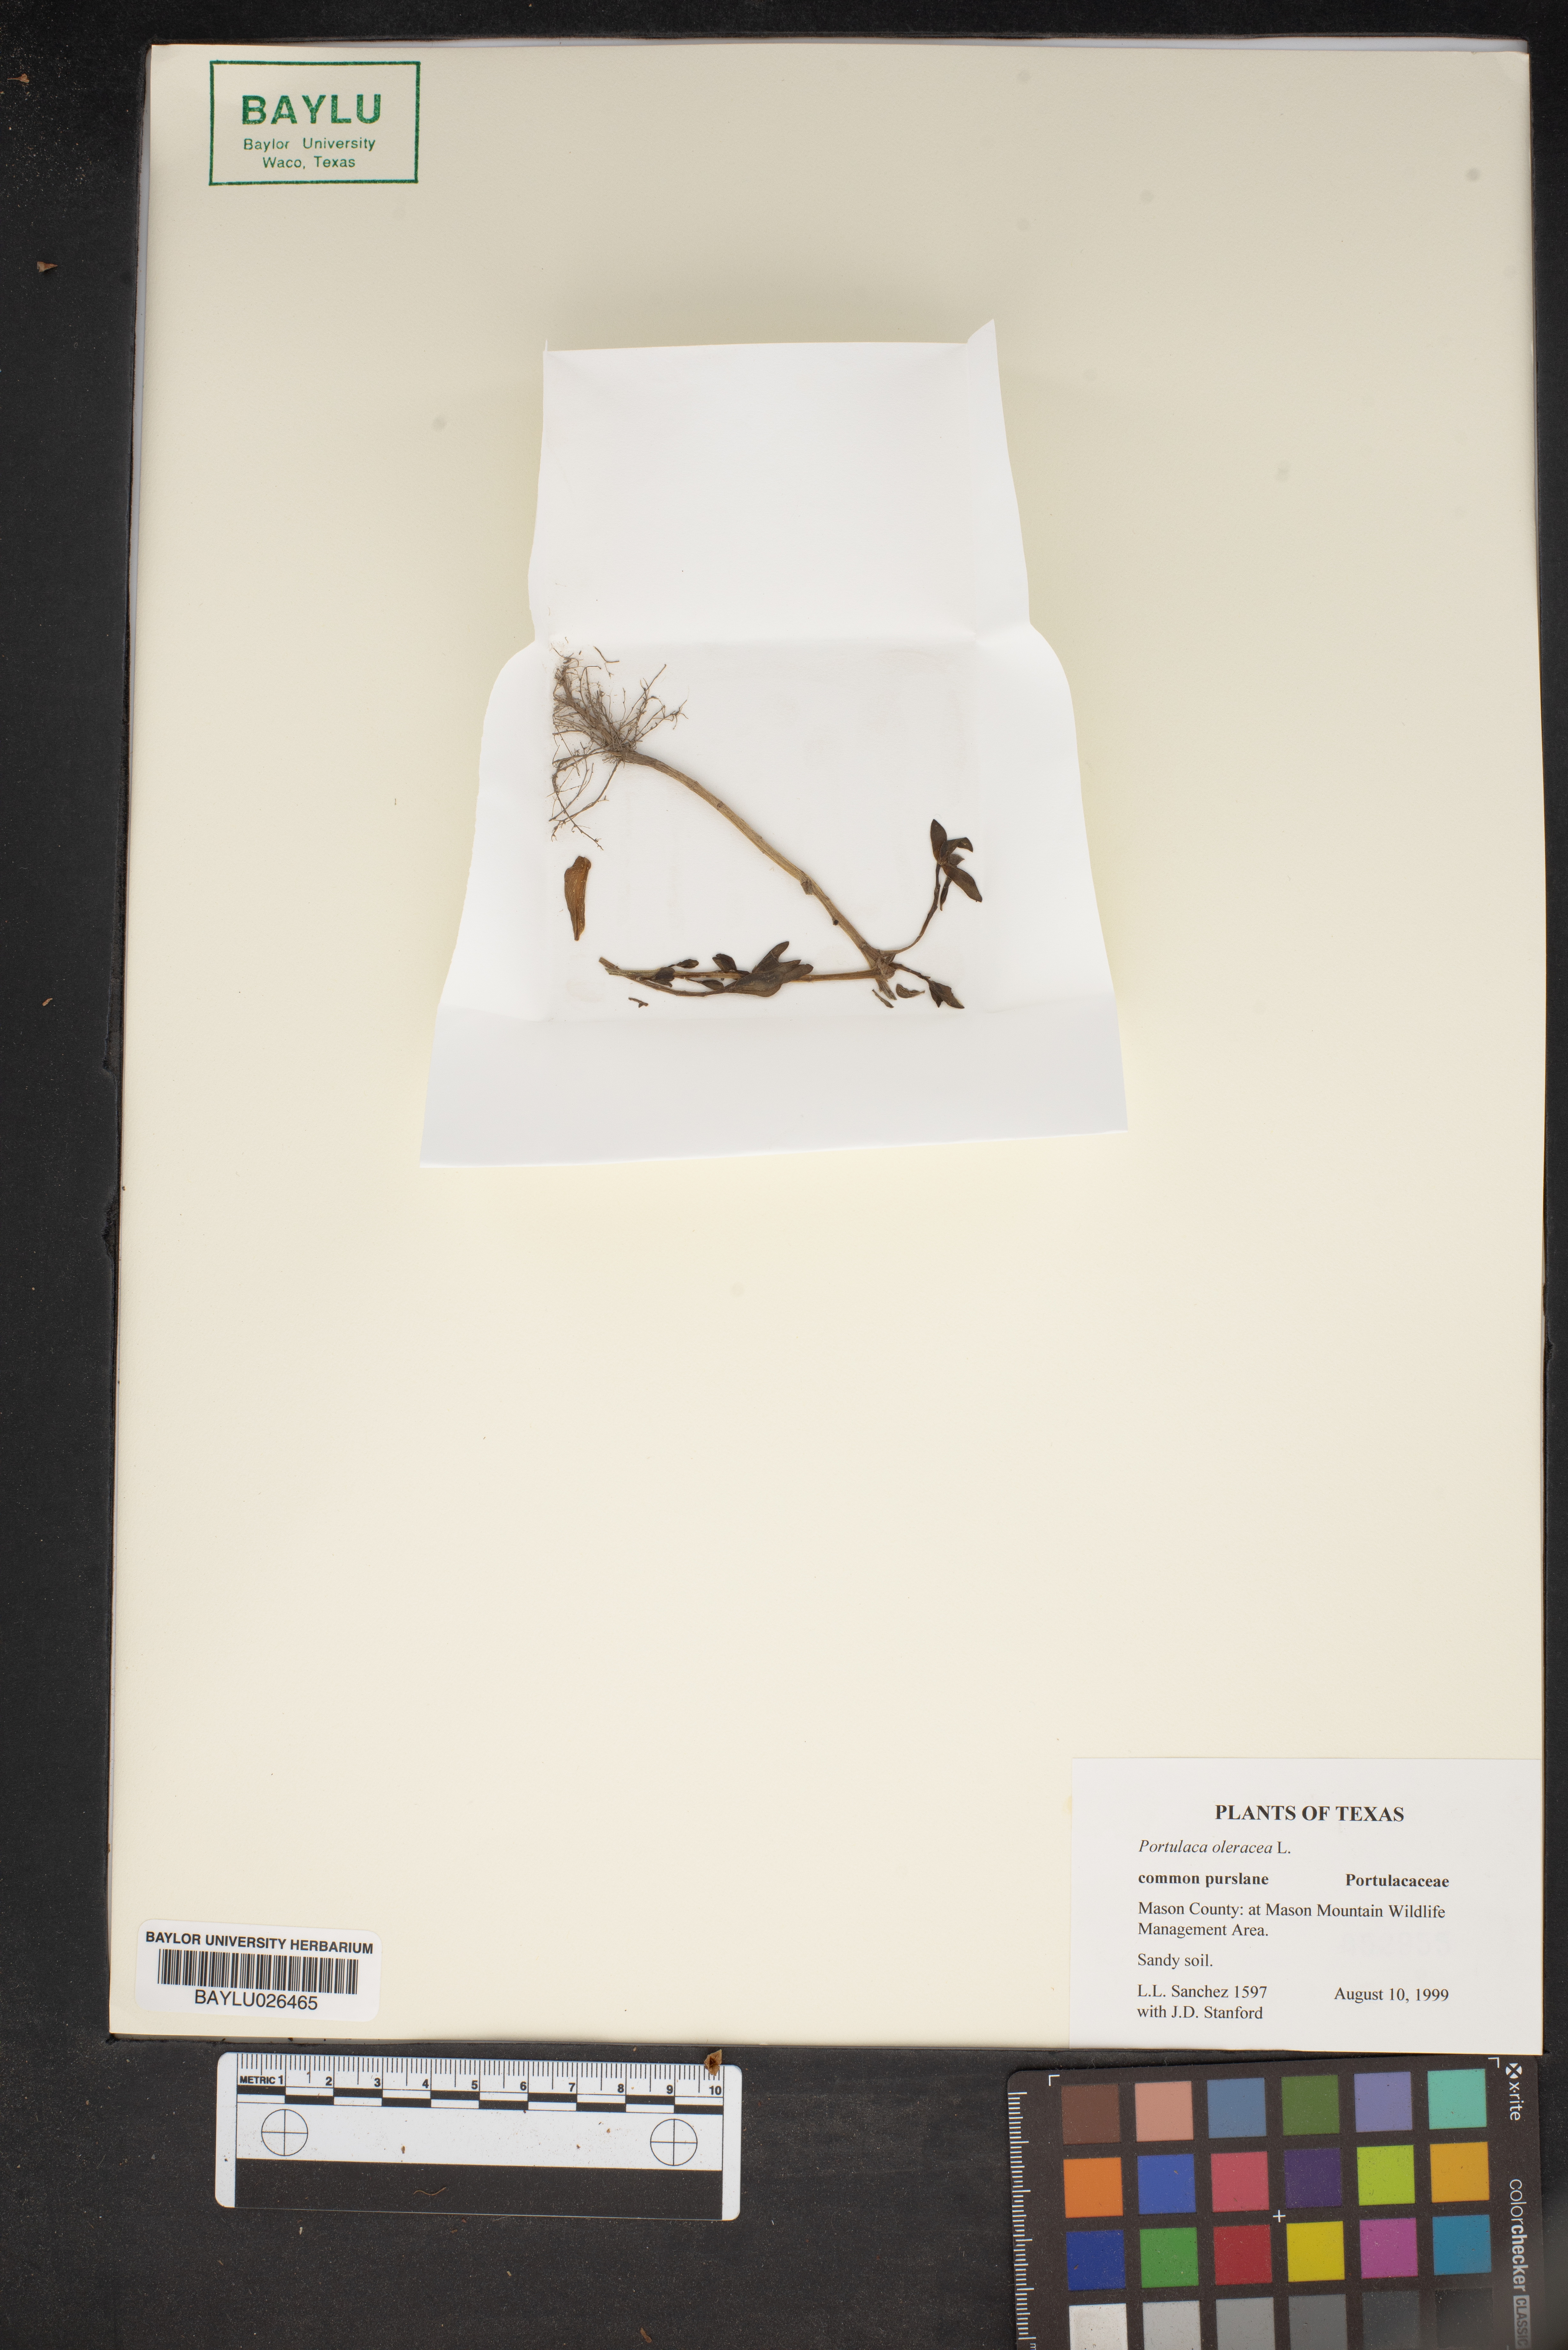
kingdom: Plantae
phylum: Tracheophyta
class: Magnoliopsida
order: Caryophyllales
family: Portulacaceae
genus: Portulaca
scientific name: Portulaca oleracea
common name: Common purslane
